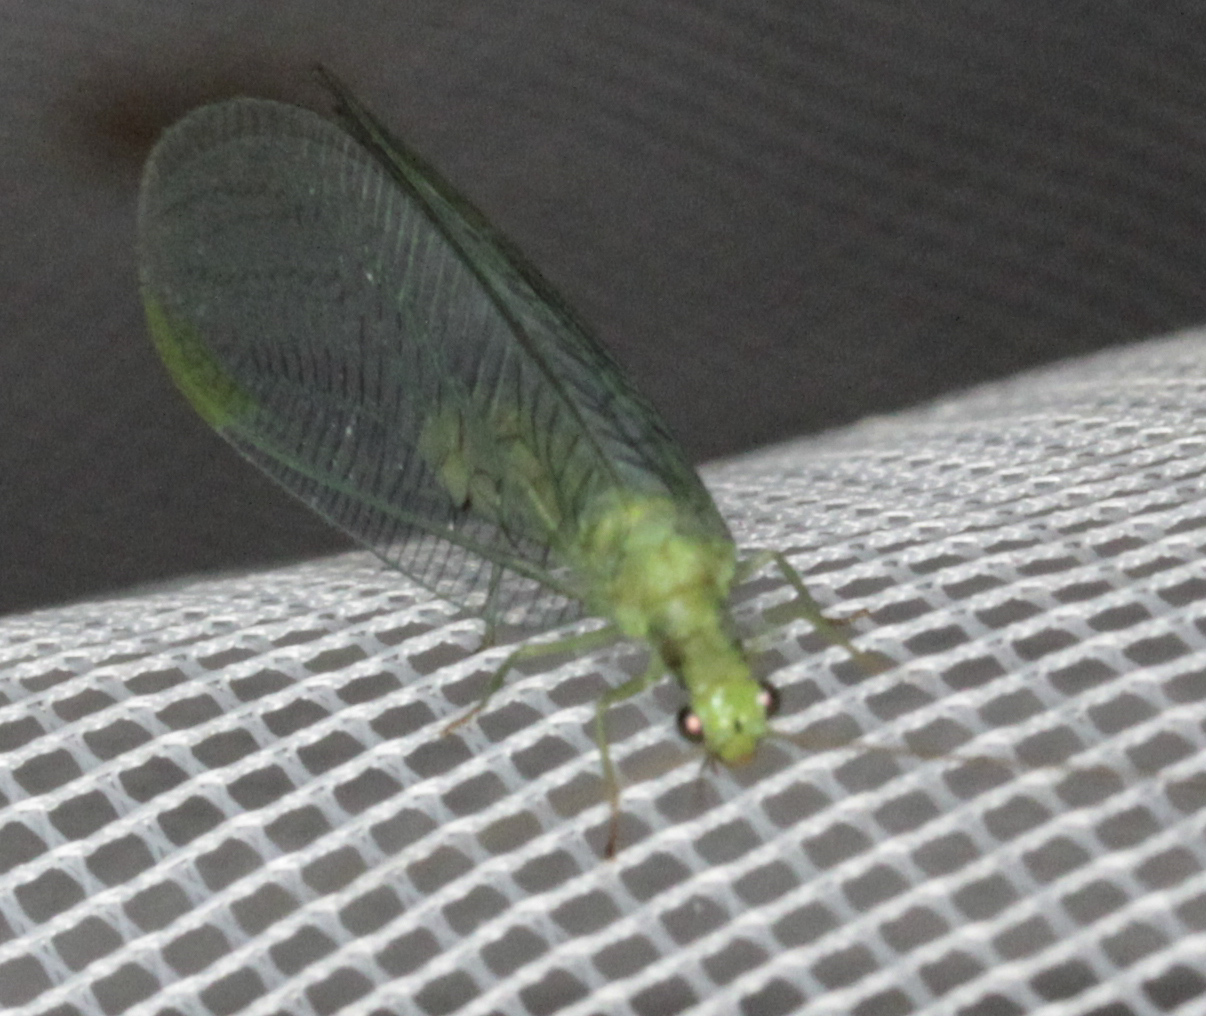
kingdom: Animalia
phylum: Arthropoda
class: Insecta
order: Neuroptera
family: Chrysopidae
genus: Chrysopa
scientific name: Chrysopa pallens
